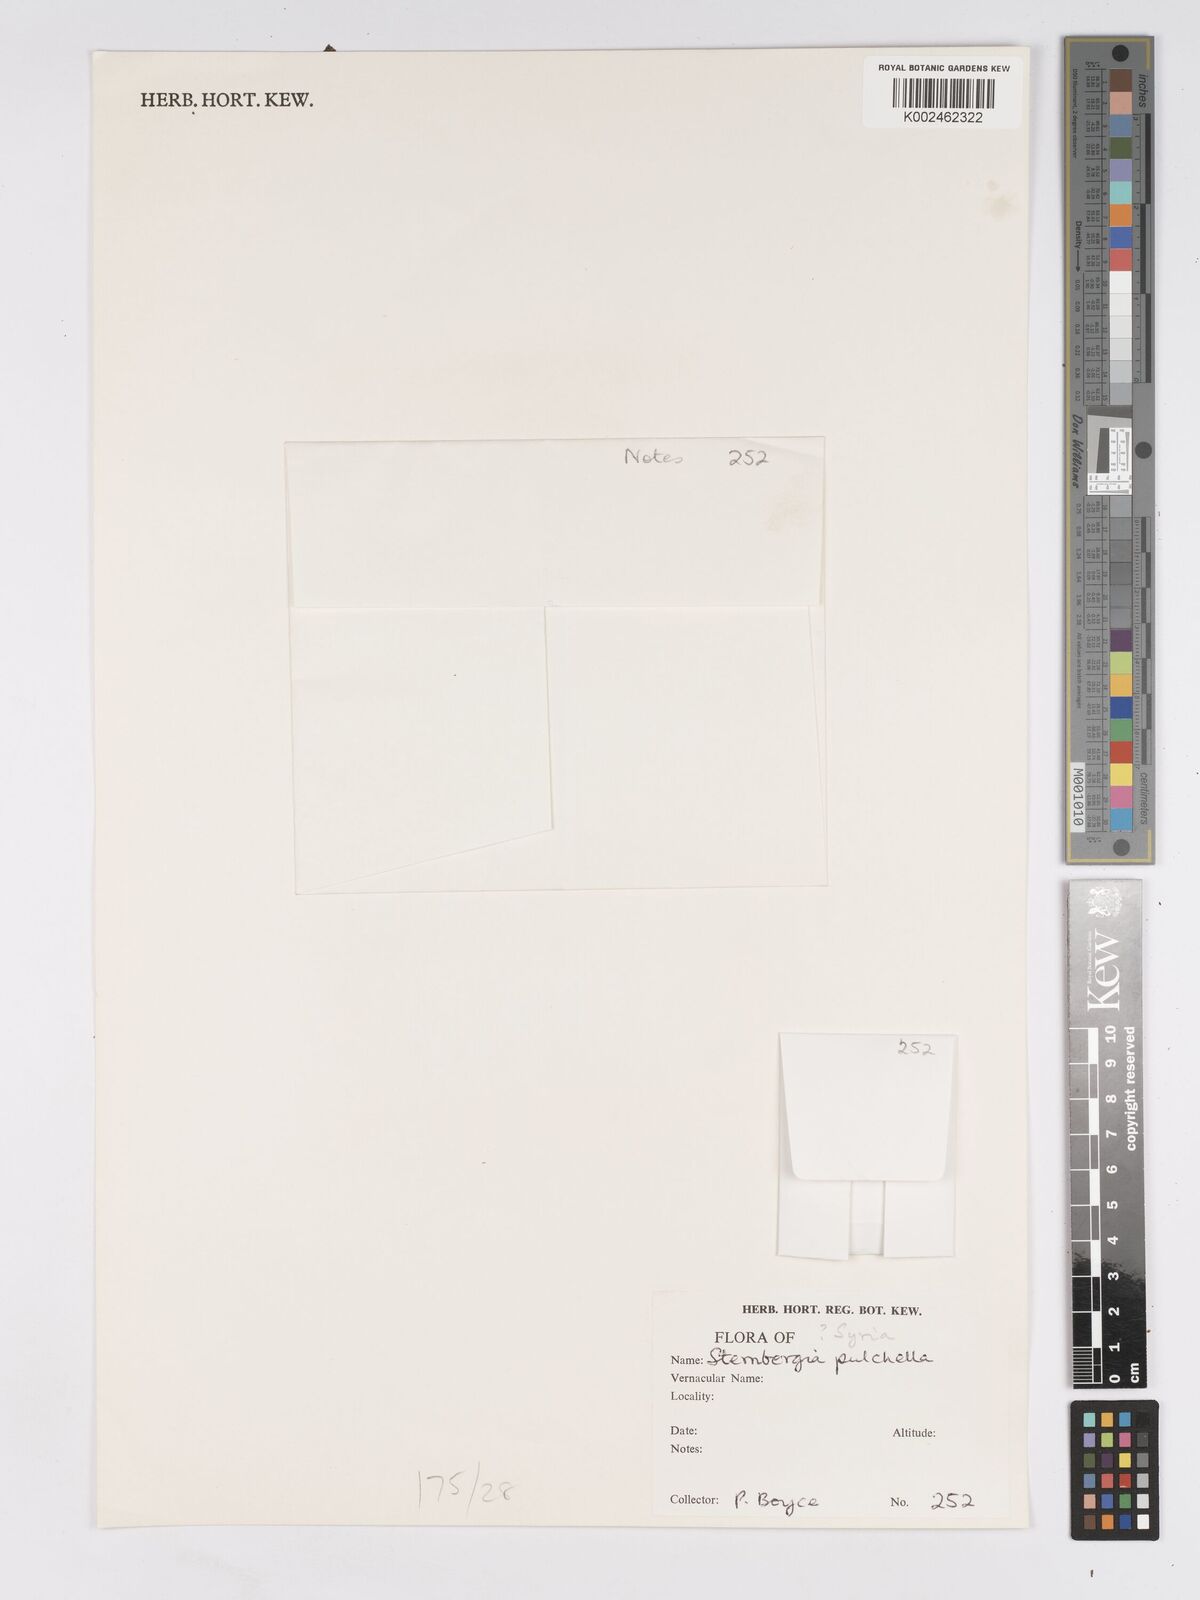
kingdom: Plantae
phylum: Tracheophyta
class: Liliopsida
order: Asparagales
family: Amaryllidaceae
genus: Sternbergia
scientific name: Sternbergia pulchella
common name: Pretty sternbergia
